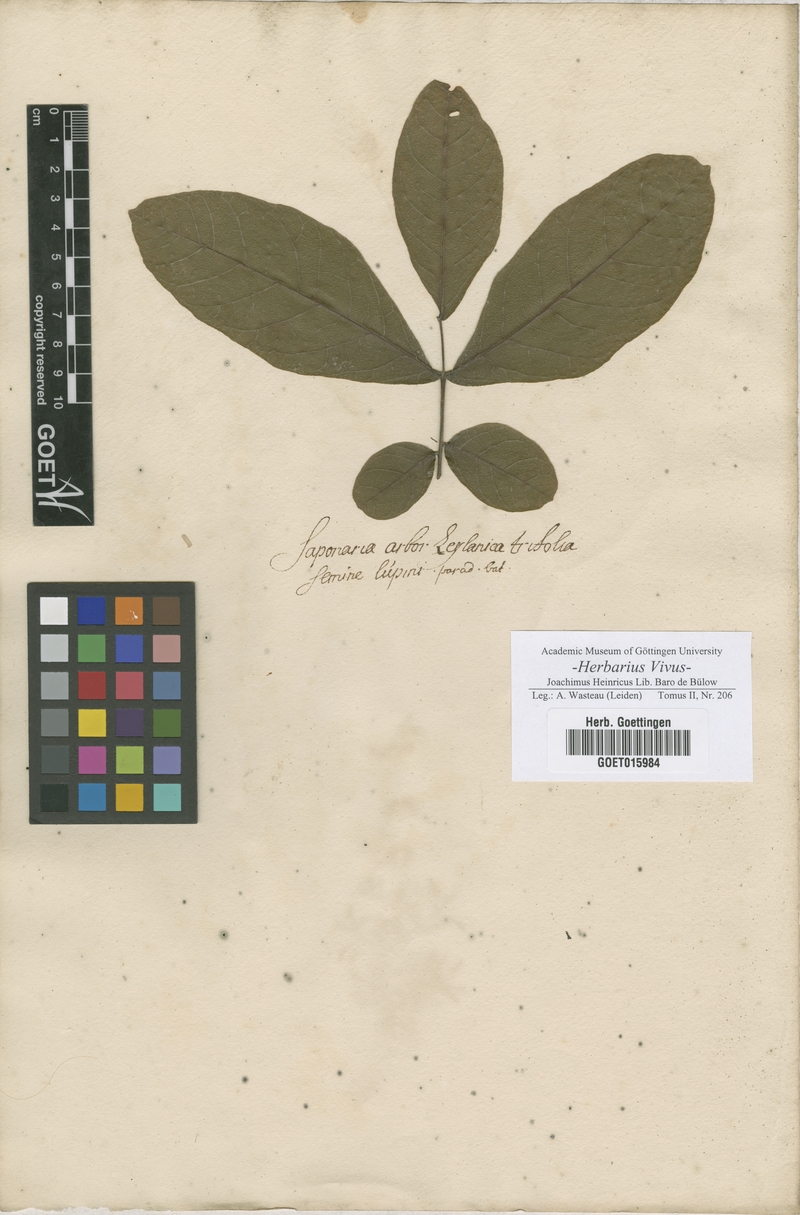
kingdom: Plantae
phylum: Tracheophyta
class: Magnoliopsida
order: Caryophyllales
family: Caryophyllaceae
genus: Saponaria
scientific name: Saponaria
